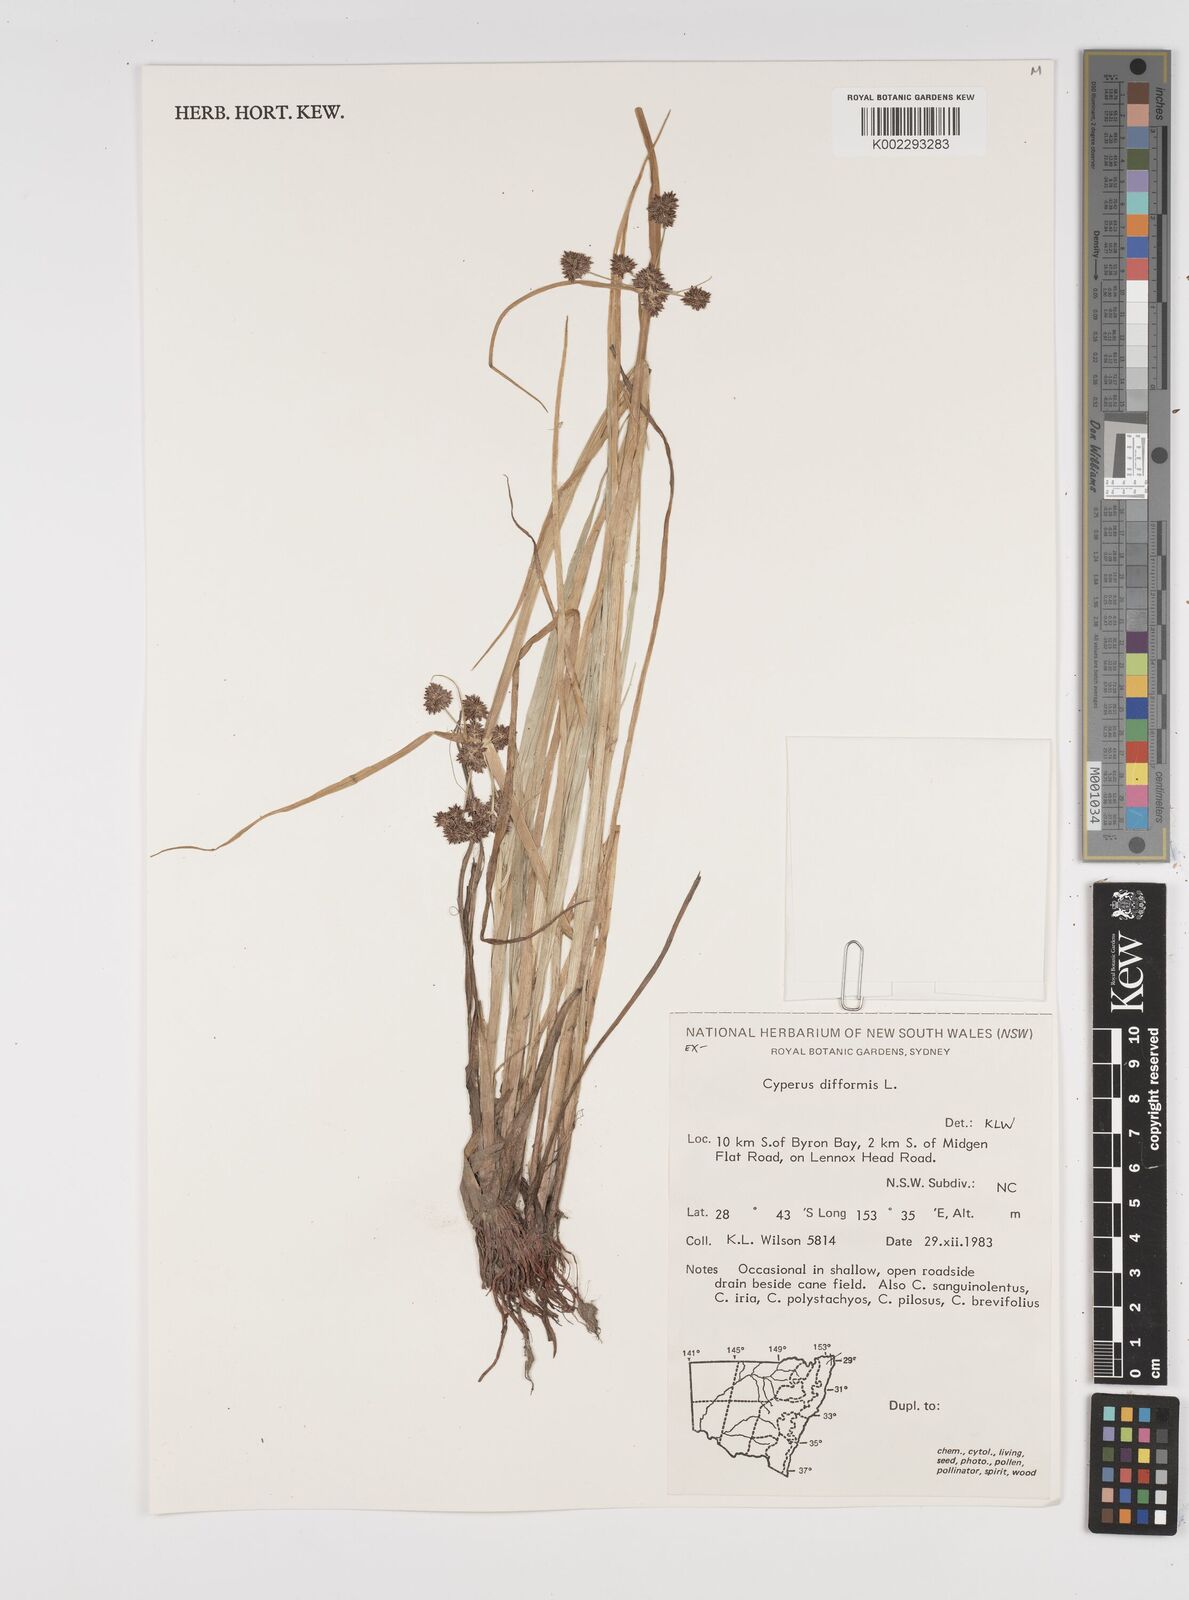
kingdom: Plantae
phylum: Tracheophyta
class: Liliopsida
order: Poales
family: Cyperaceae
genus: Cyperus
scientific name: Cyperus difformis
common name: Variable flatsedge
